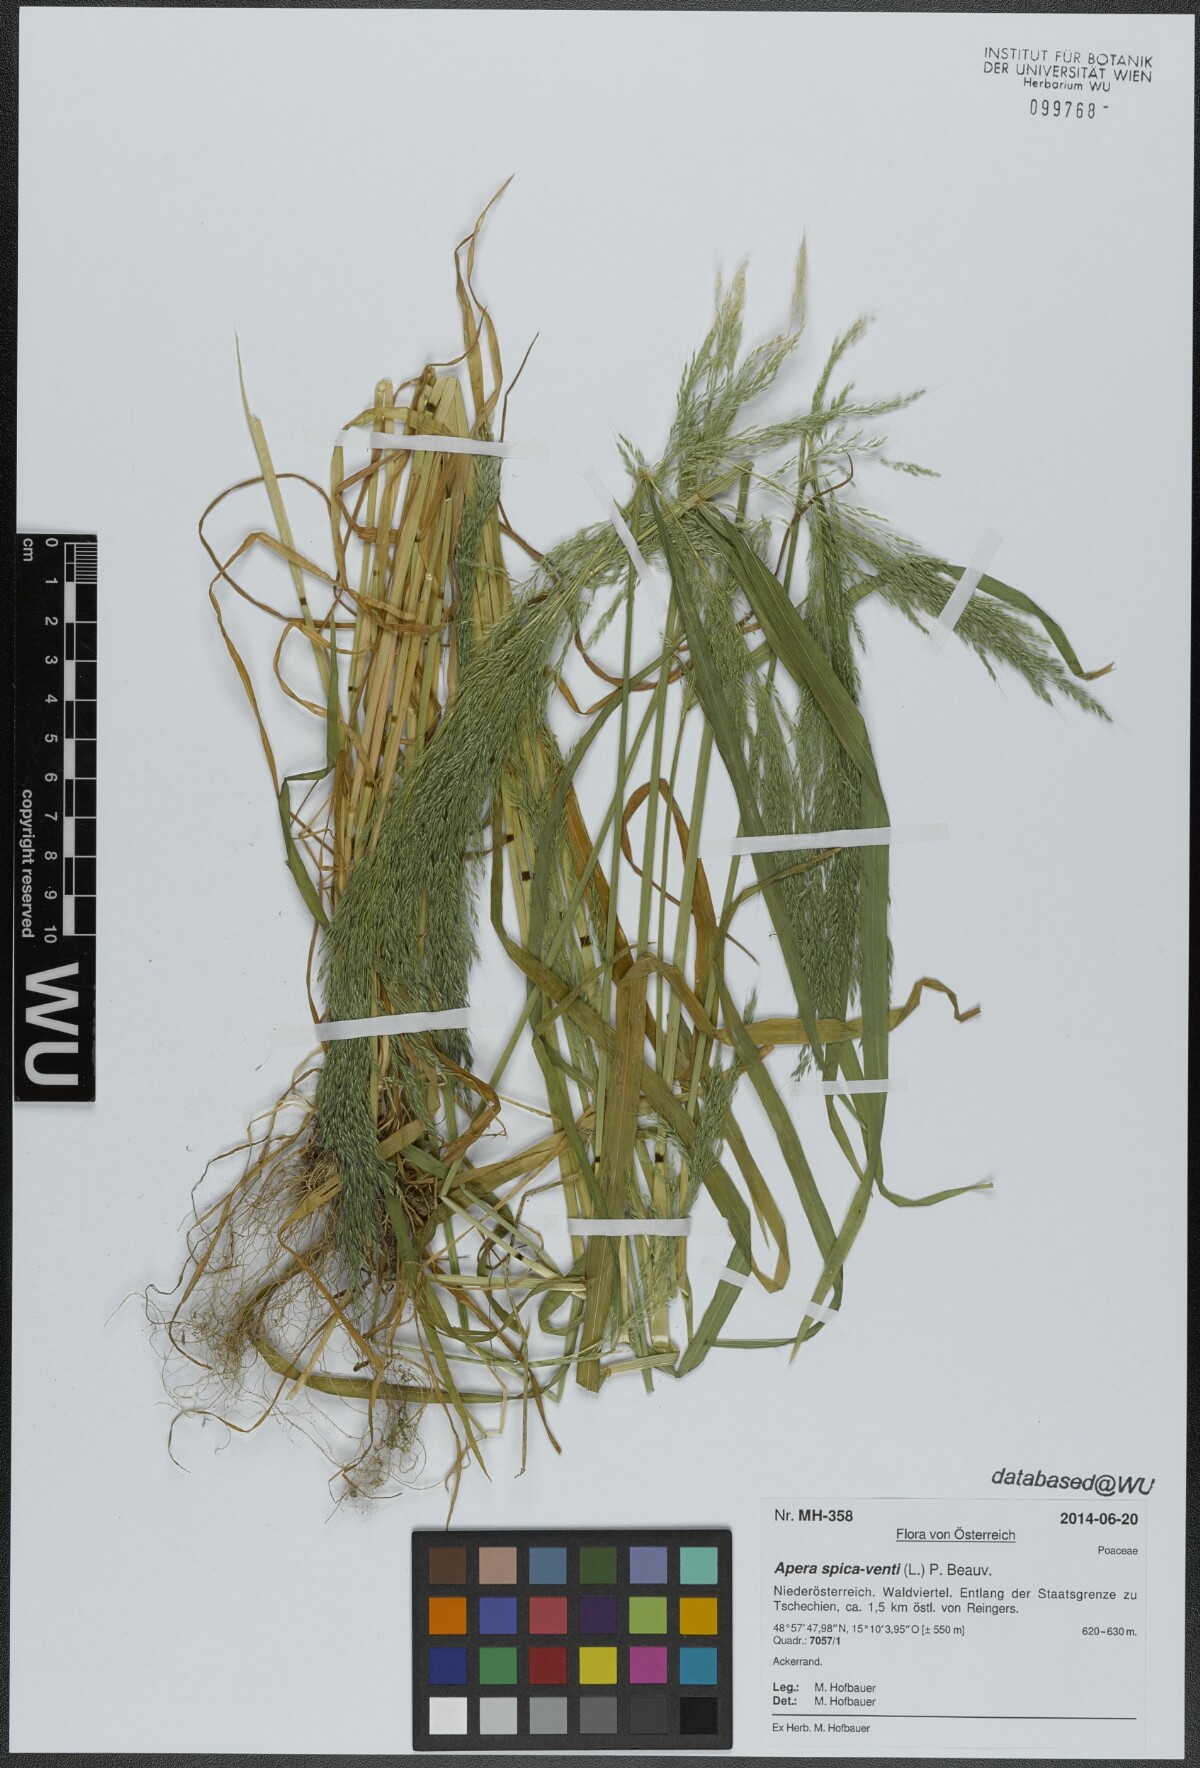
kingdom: Plantae
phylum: Tracheophyta
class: Liliopsida
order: Poales
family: Poaceae
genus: Apera
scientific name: Apera spica-venti
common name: Loose silky-bent
